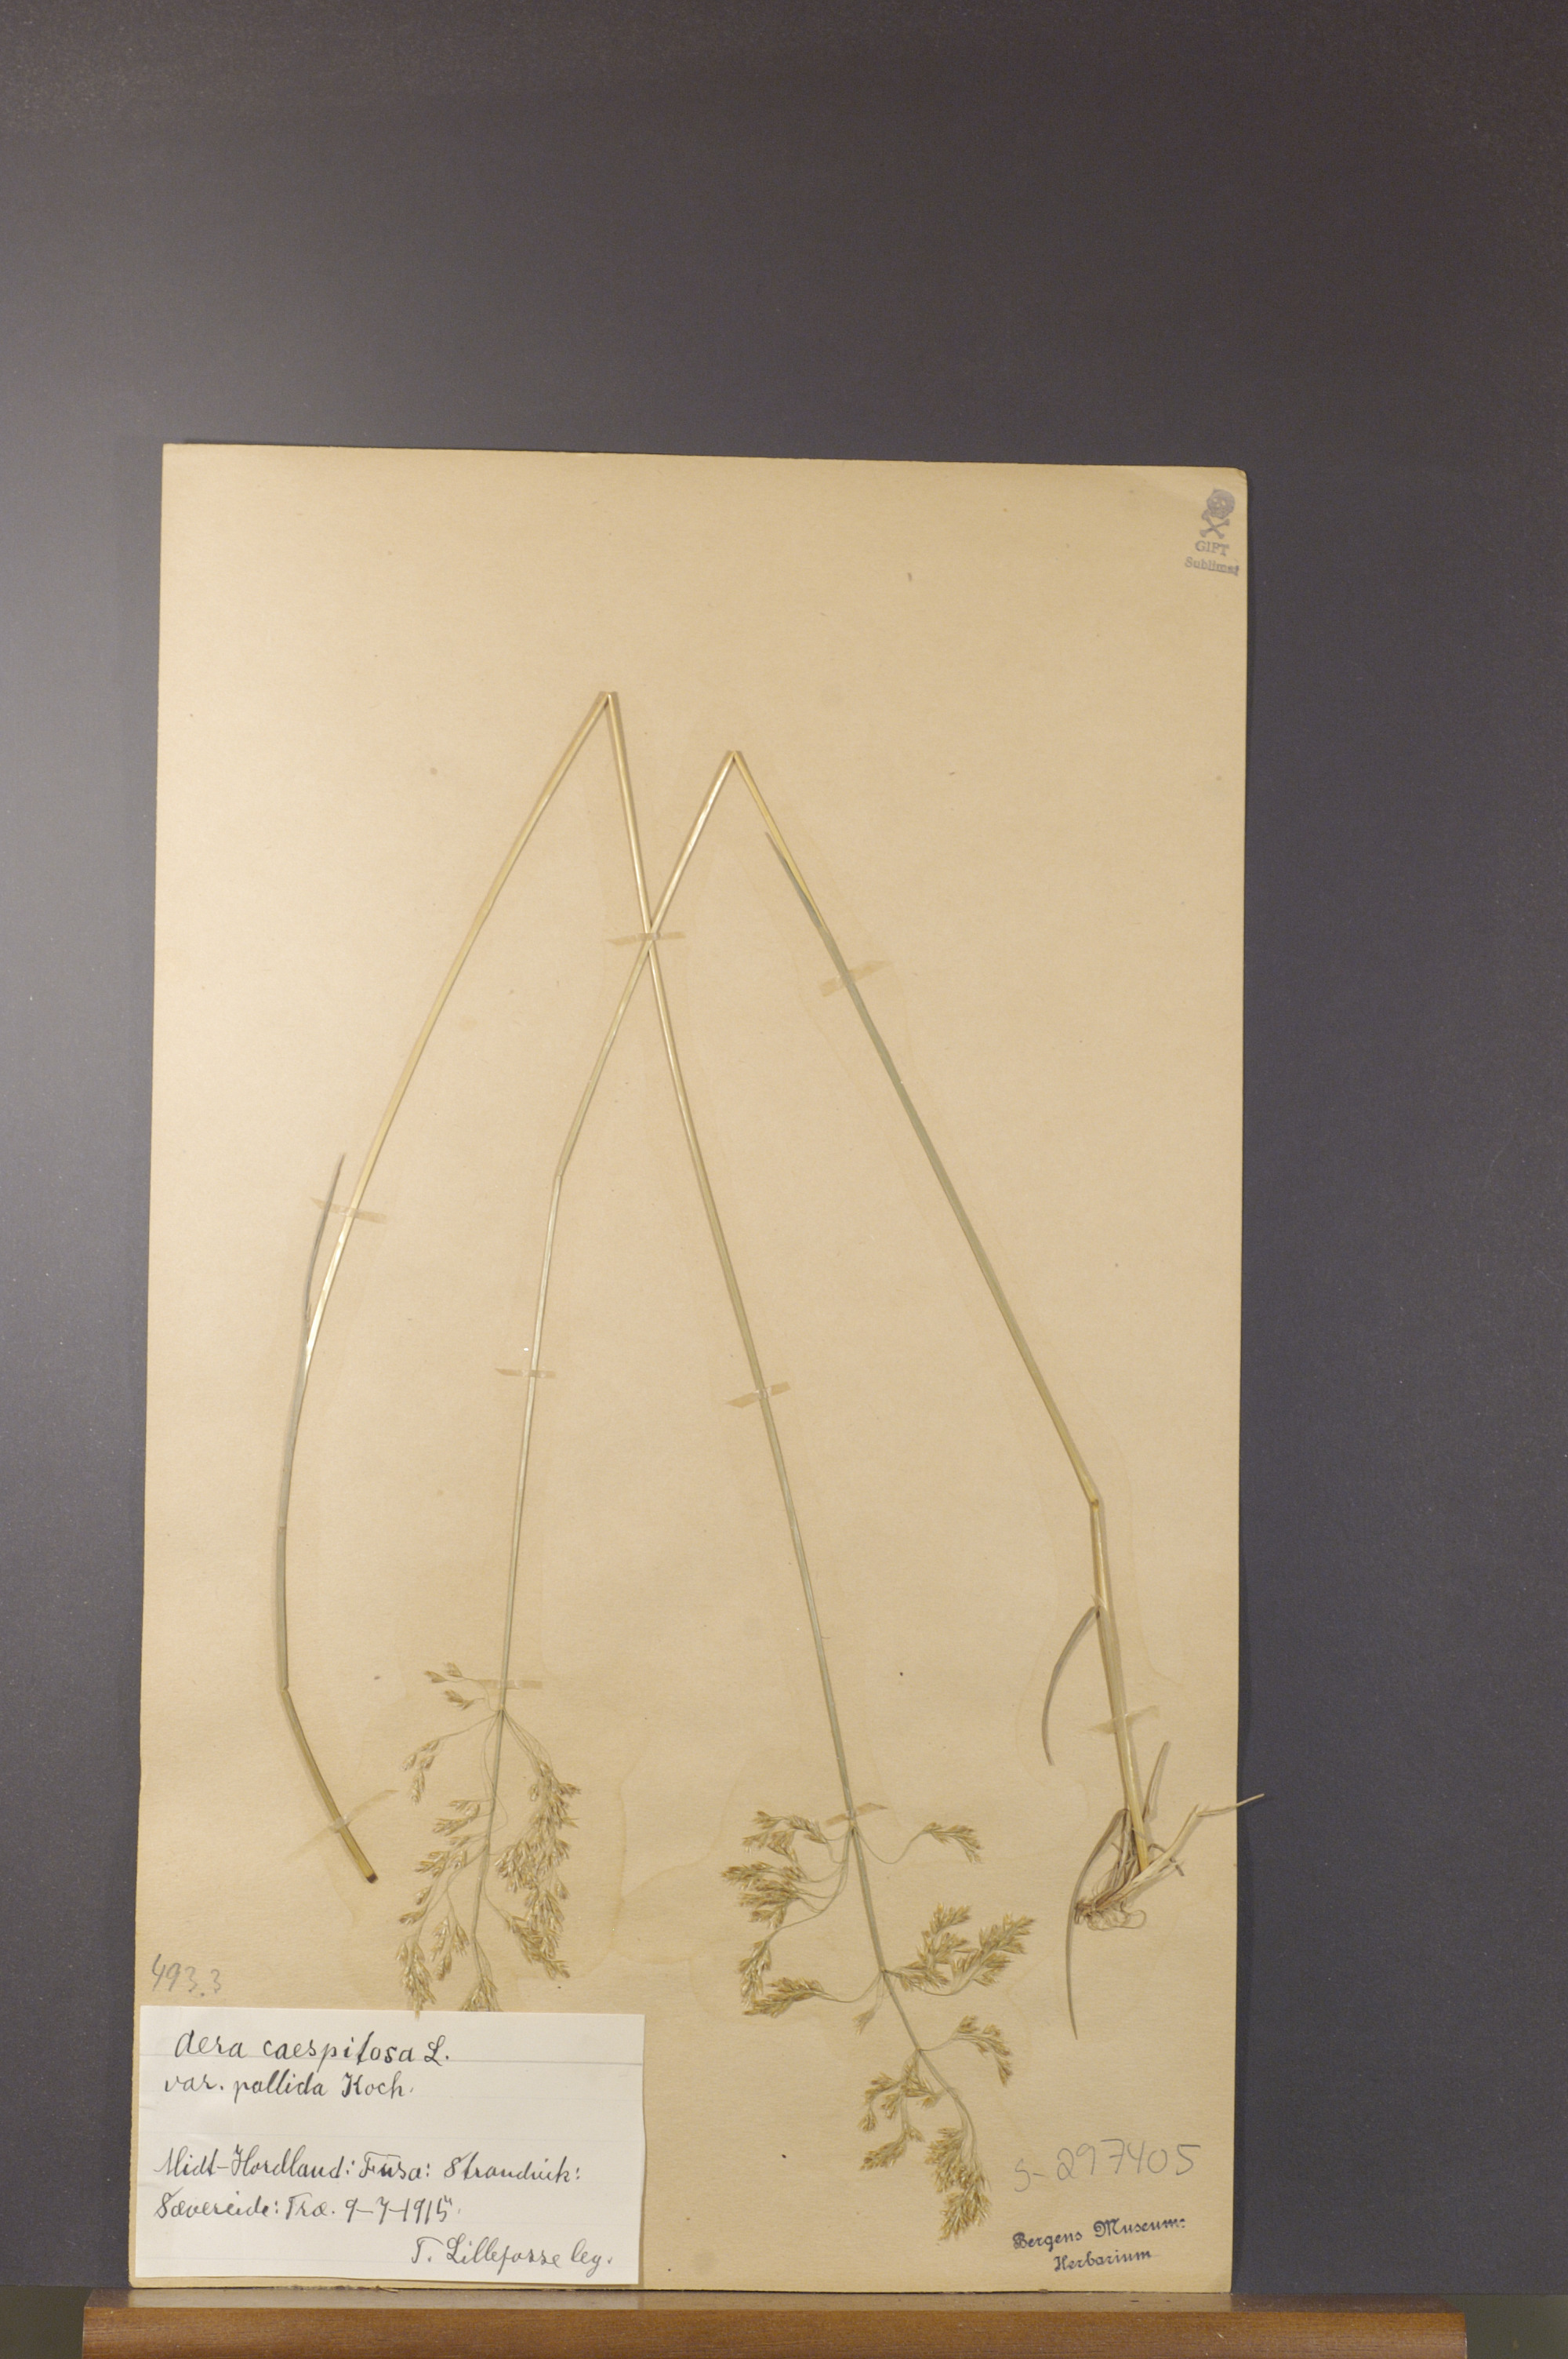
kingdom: Plantae
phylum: Tracheophyta
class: Liliopsida
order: Poales
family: Poaceae
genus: Deschampsia
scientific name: Deschampsia cespitosa
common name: Tufted hair-grass
